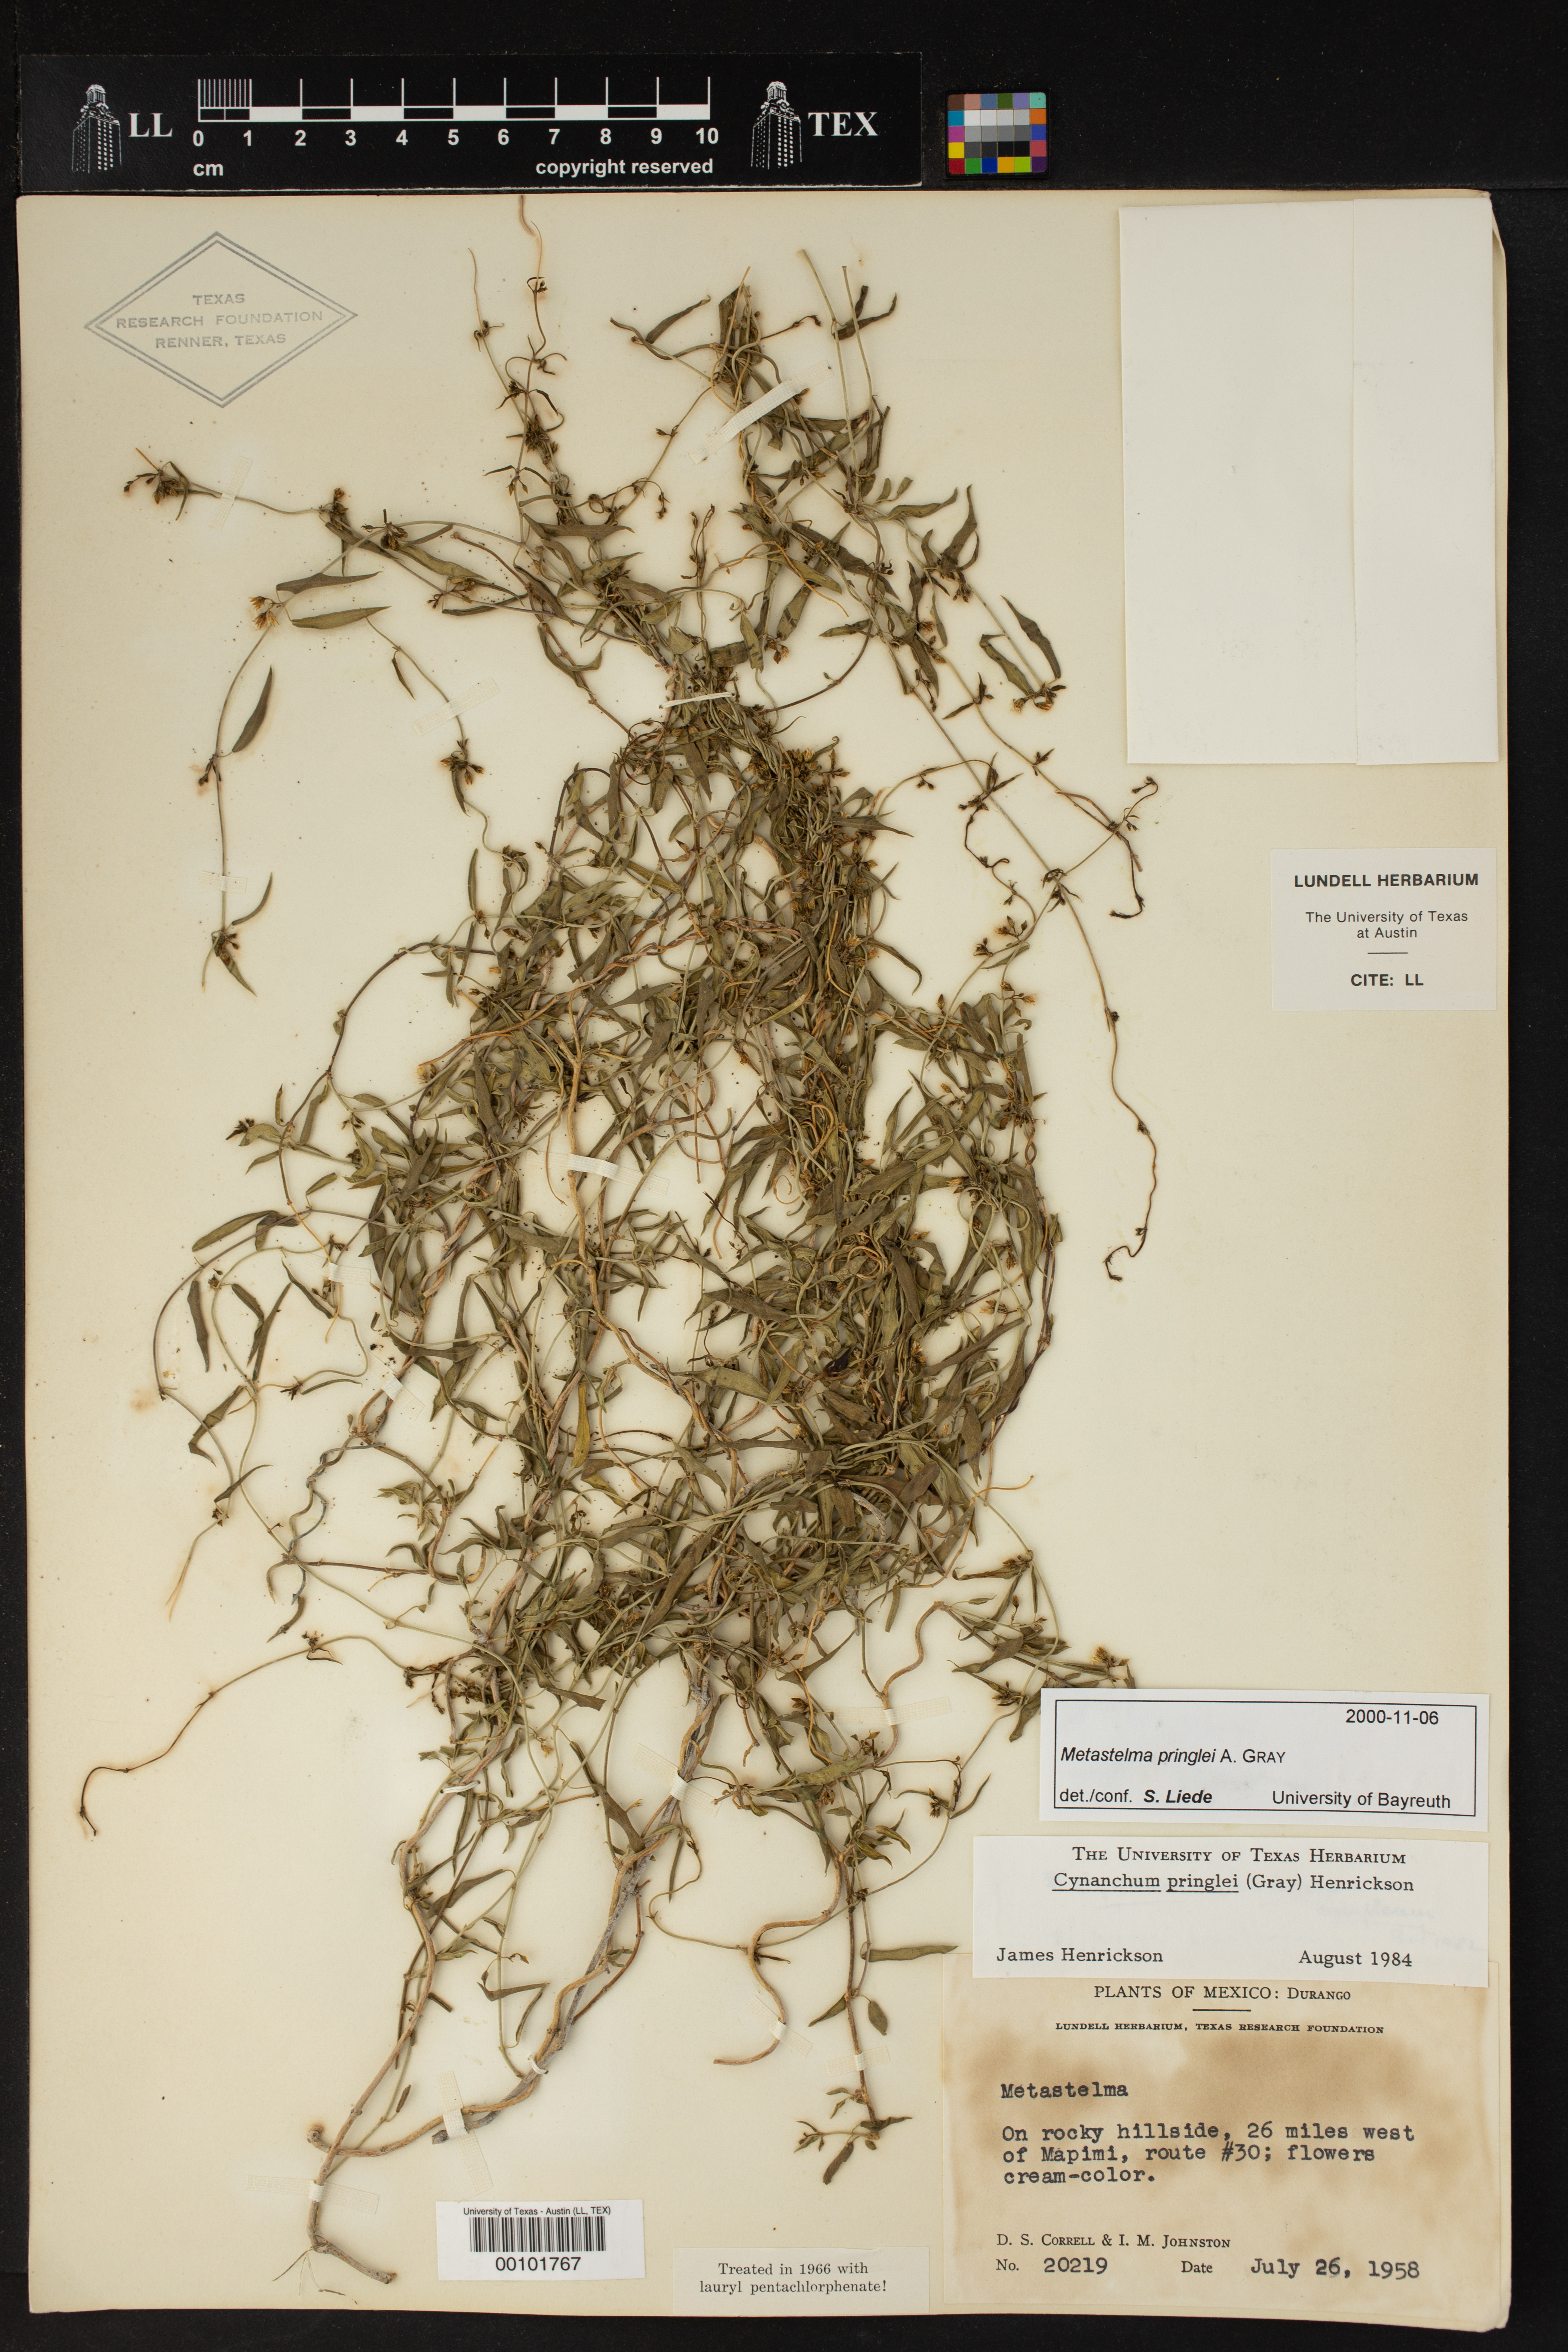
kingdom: Plantae
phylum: Tracheophyta
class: Magnoliopsida
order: Gentianales
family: Apocynaceae
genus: Metastelma
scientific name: Metastelma pringlei
